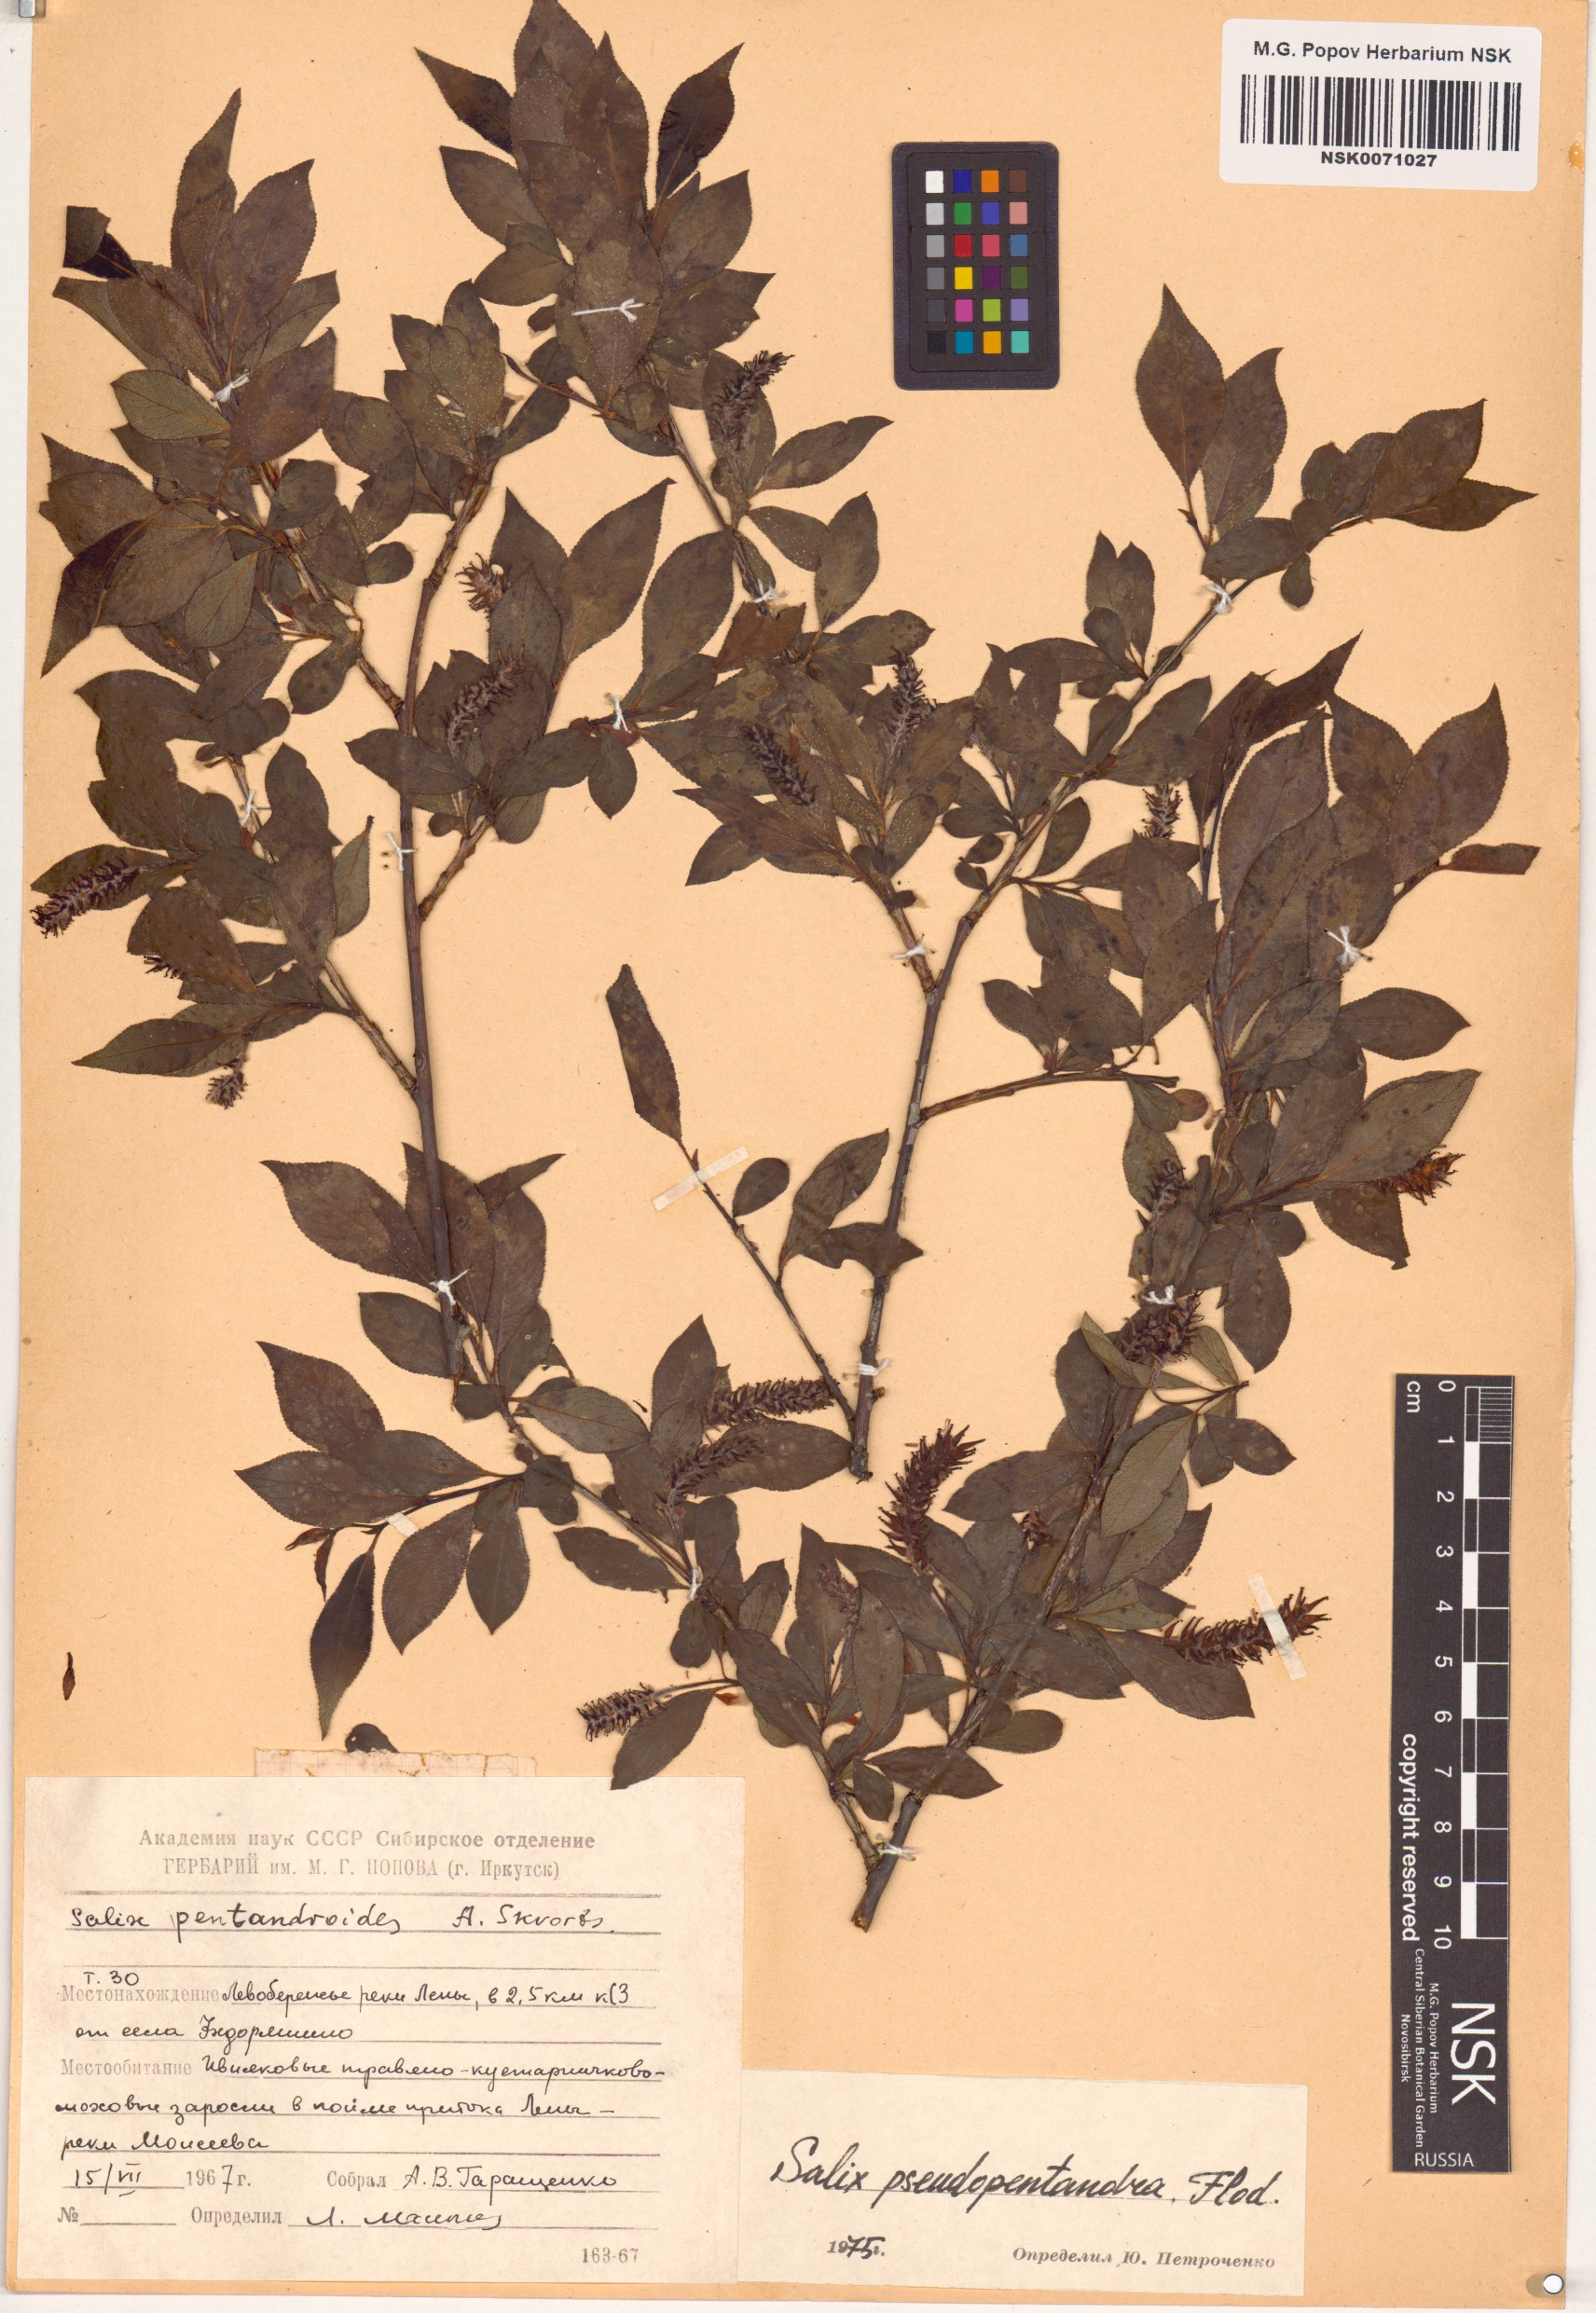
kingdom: Plantae
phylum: Tracheophyta
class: Magnoliopsida
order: Malpighiales
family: Salicaceae
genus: Salix
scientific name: Salix pseudopentandra
